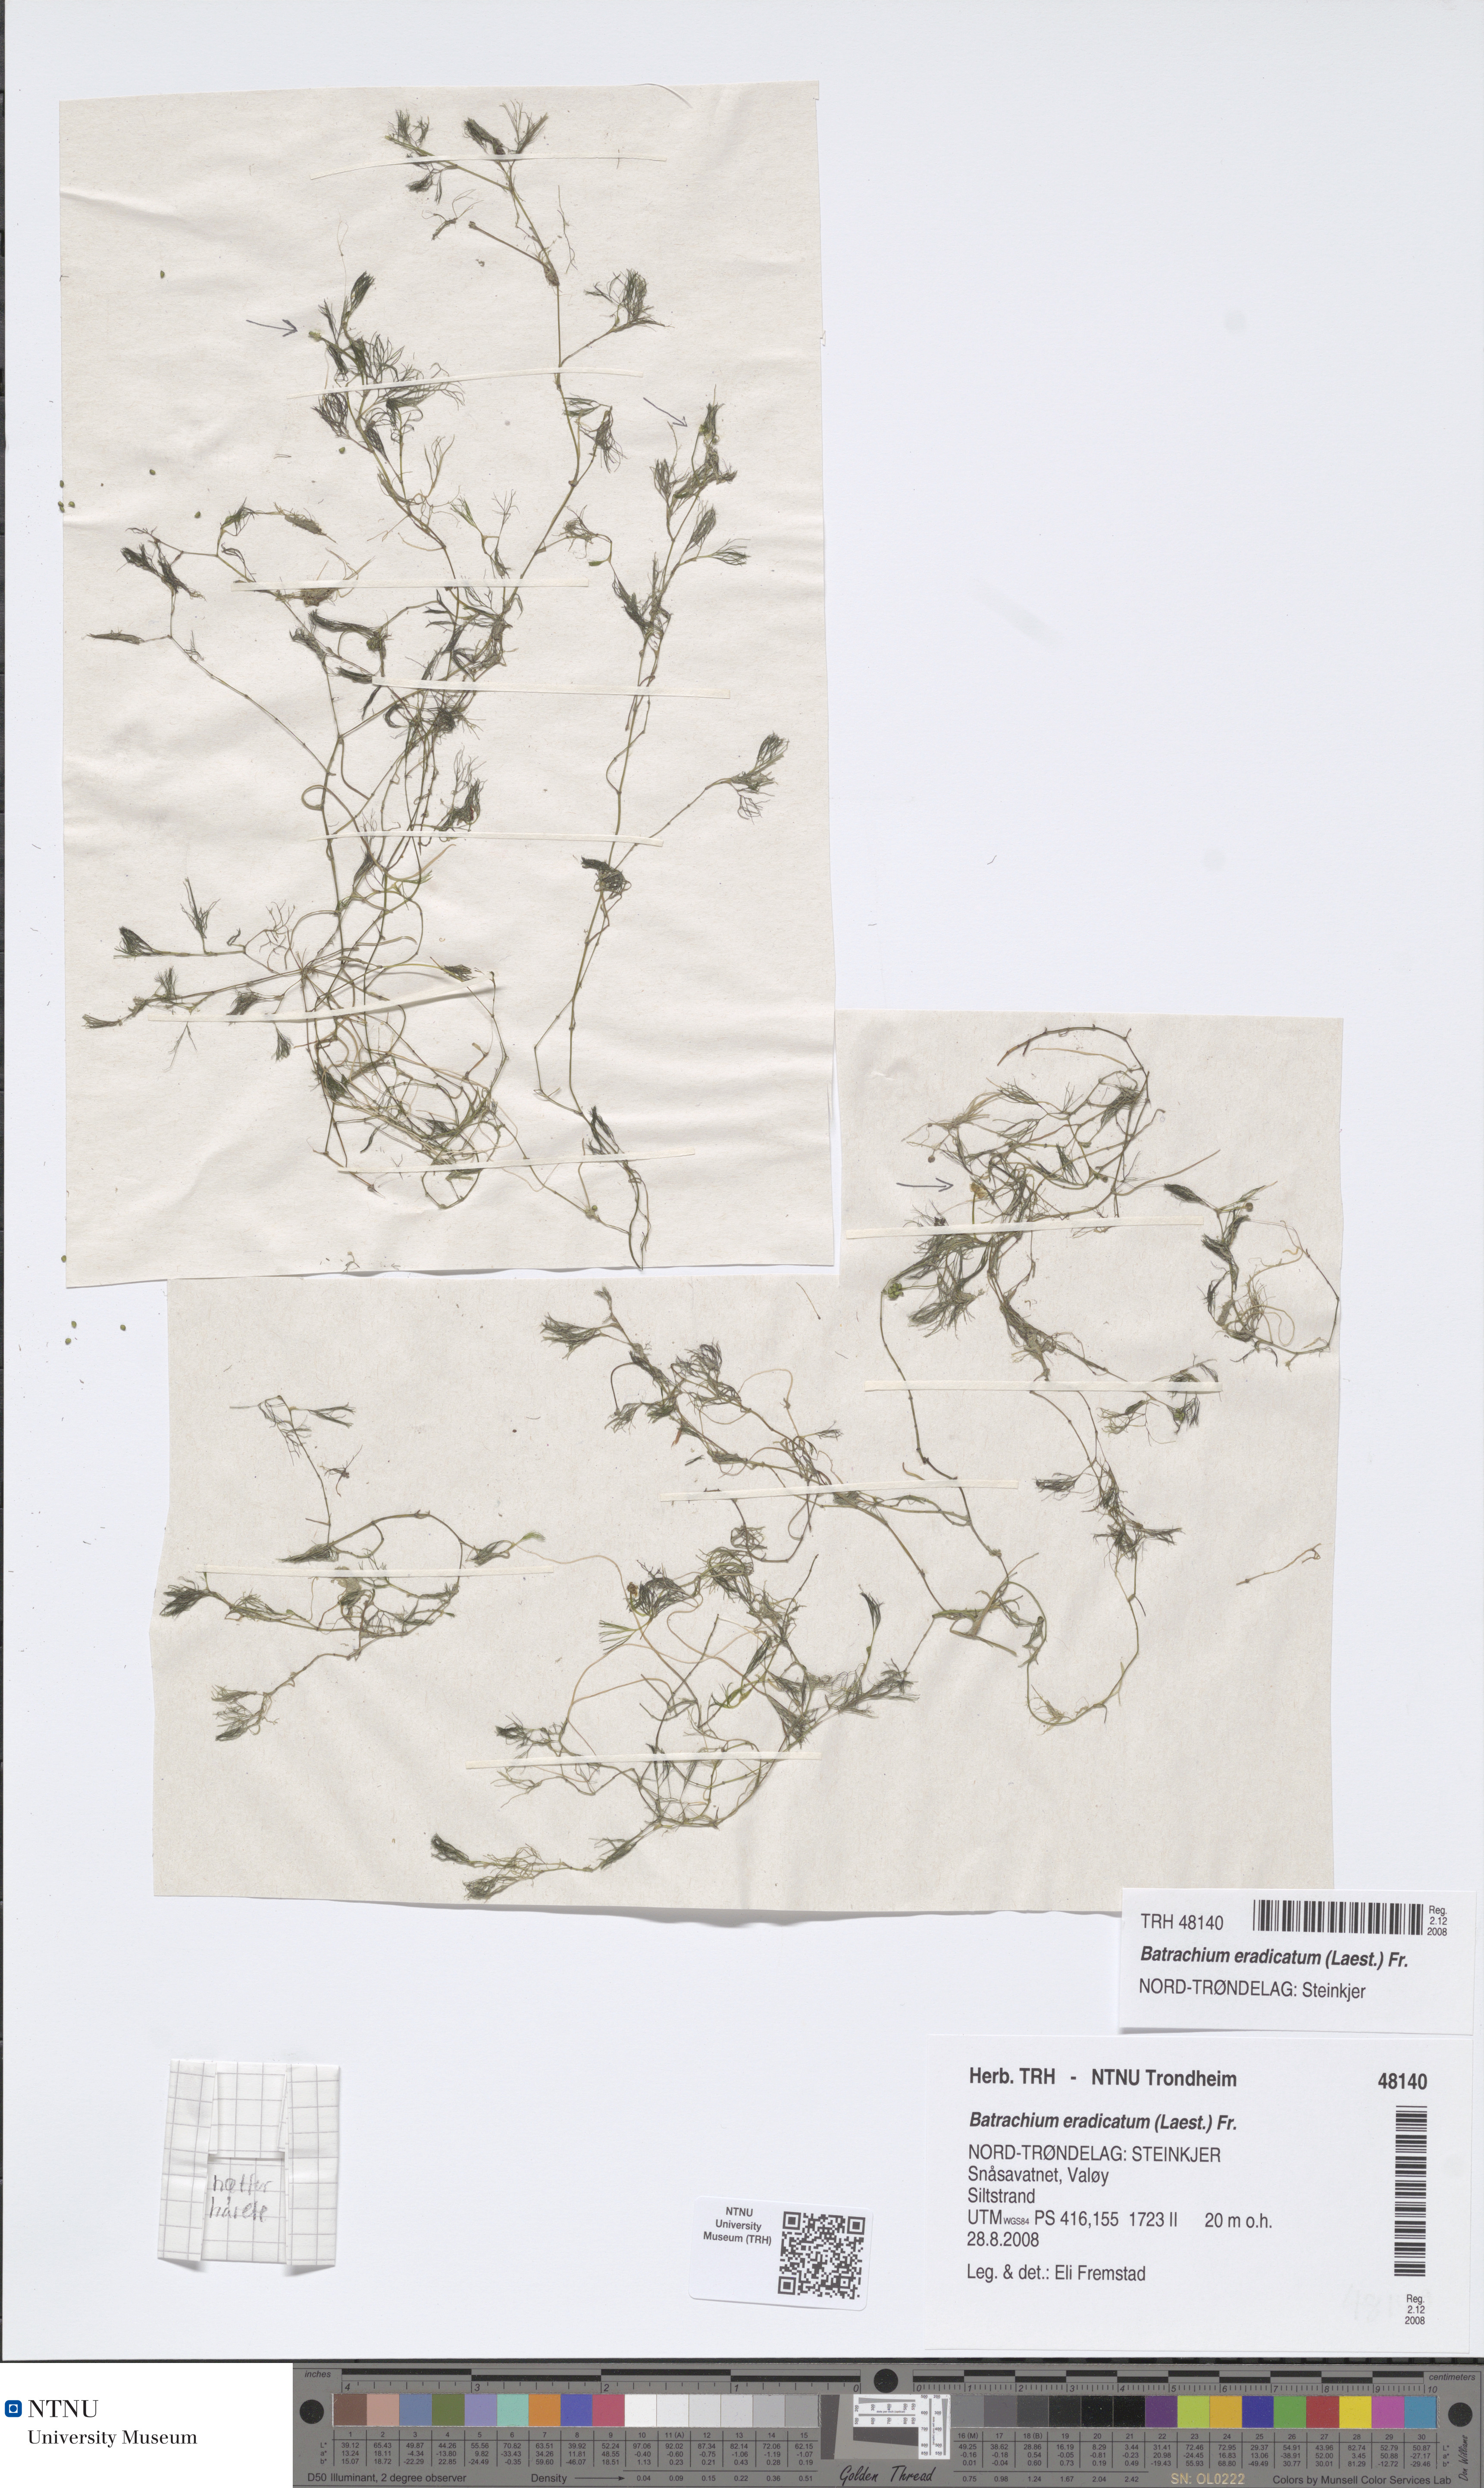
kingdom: Plantae
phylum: Tracheophyta
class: Magnoliopsida
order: Ranunculales
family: Ranunculaceae
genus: Ranunculus
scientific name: Ranunculus confervoides
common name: Delicate buttercup
